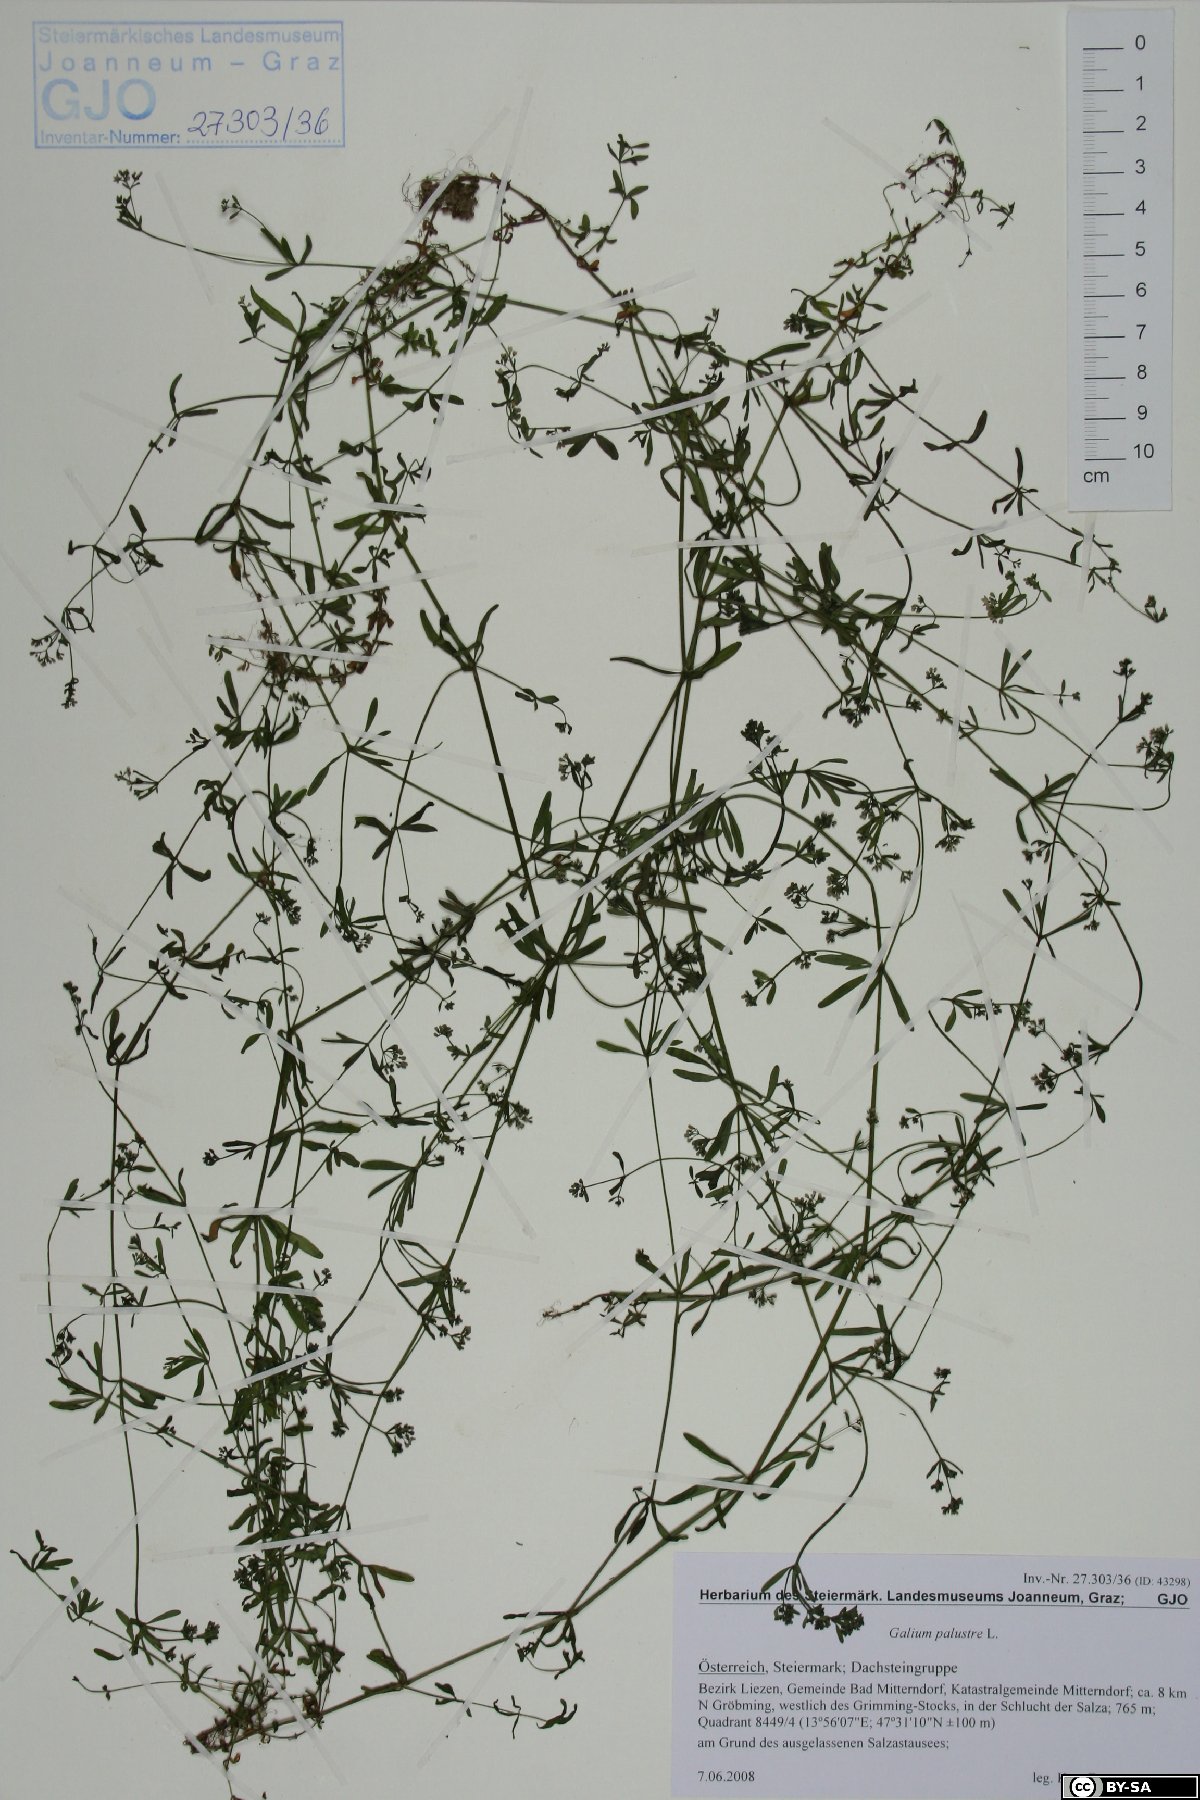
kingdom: Plantae
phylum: Tracheophyta
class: Magnoliopsida
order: Gentianales
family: Rubiaceae
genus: Galium
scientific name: Galium palustre
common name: Common marsh-bedstraw
